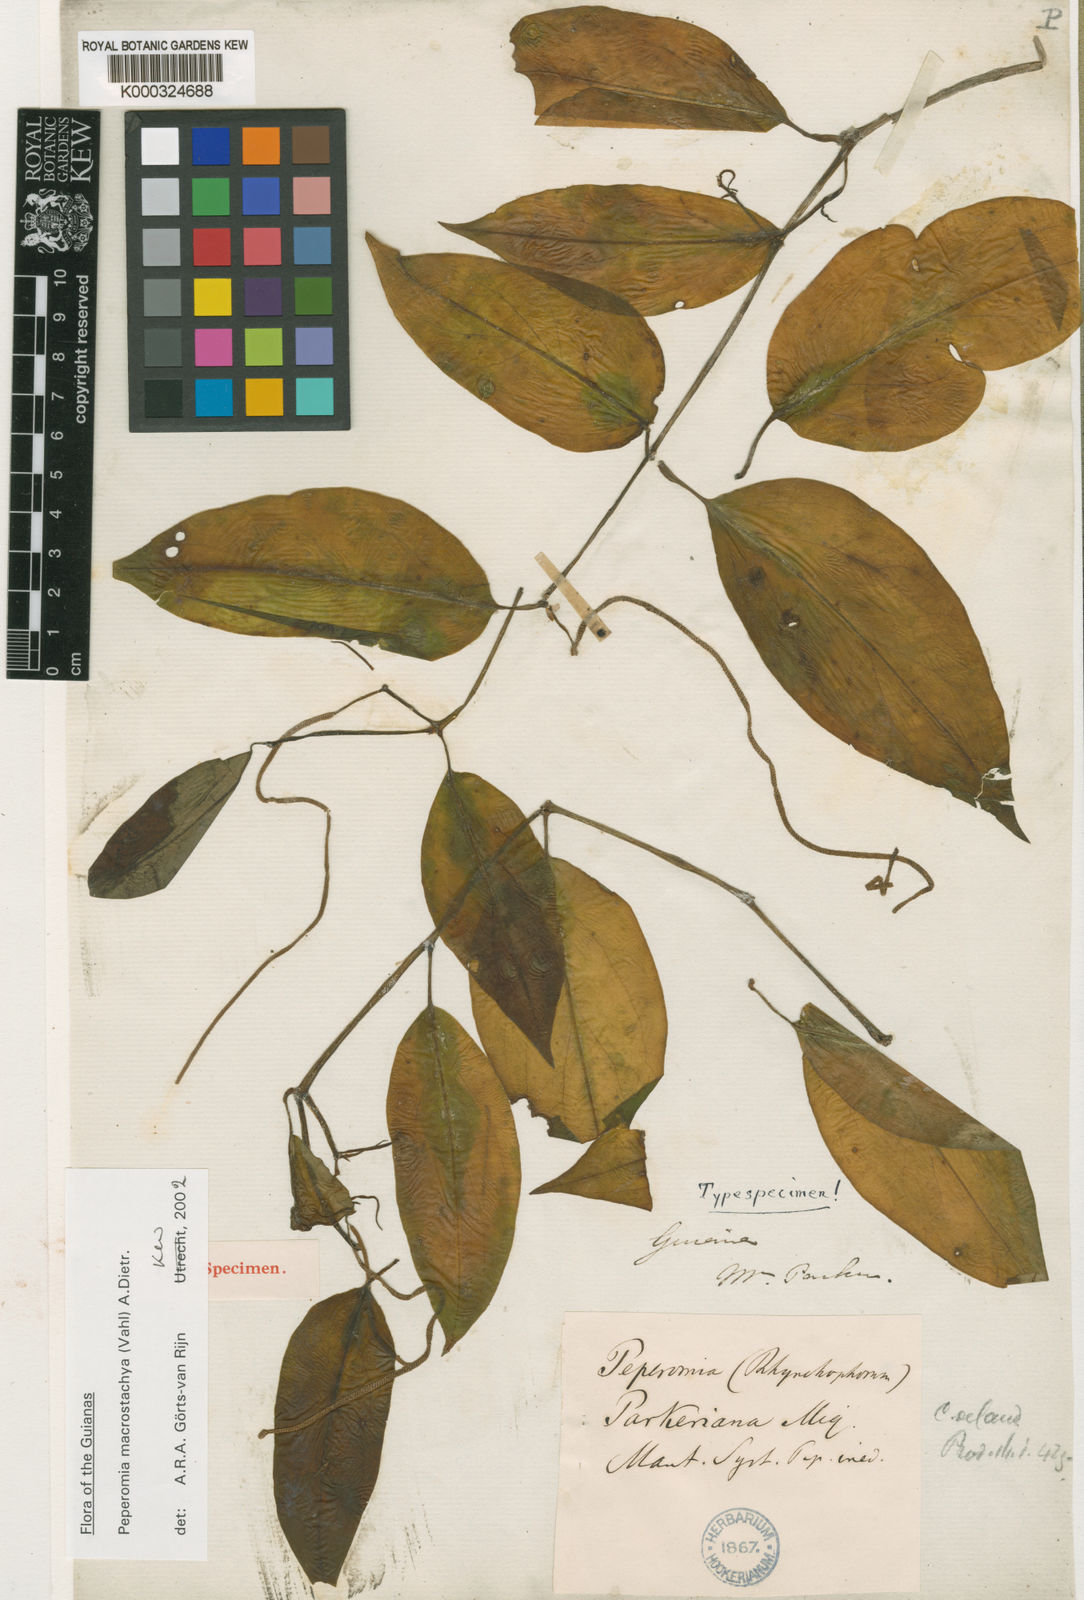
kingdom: Plantae
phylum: Tracheophyta
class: Magnoliopsida
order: Piperales
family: Piperaceae
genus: Peperomia
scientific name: Peperomia macrostachyos
